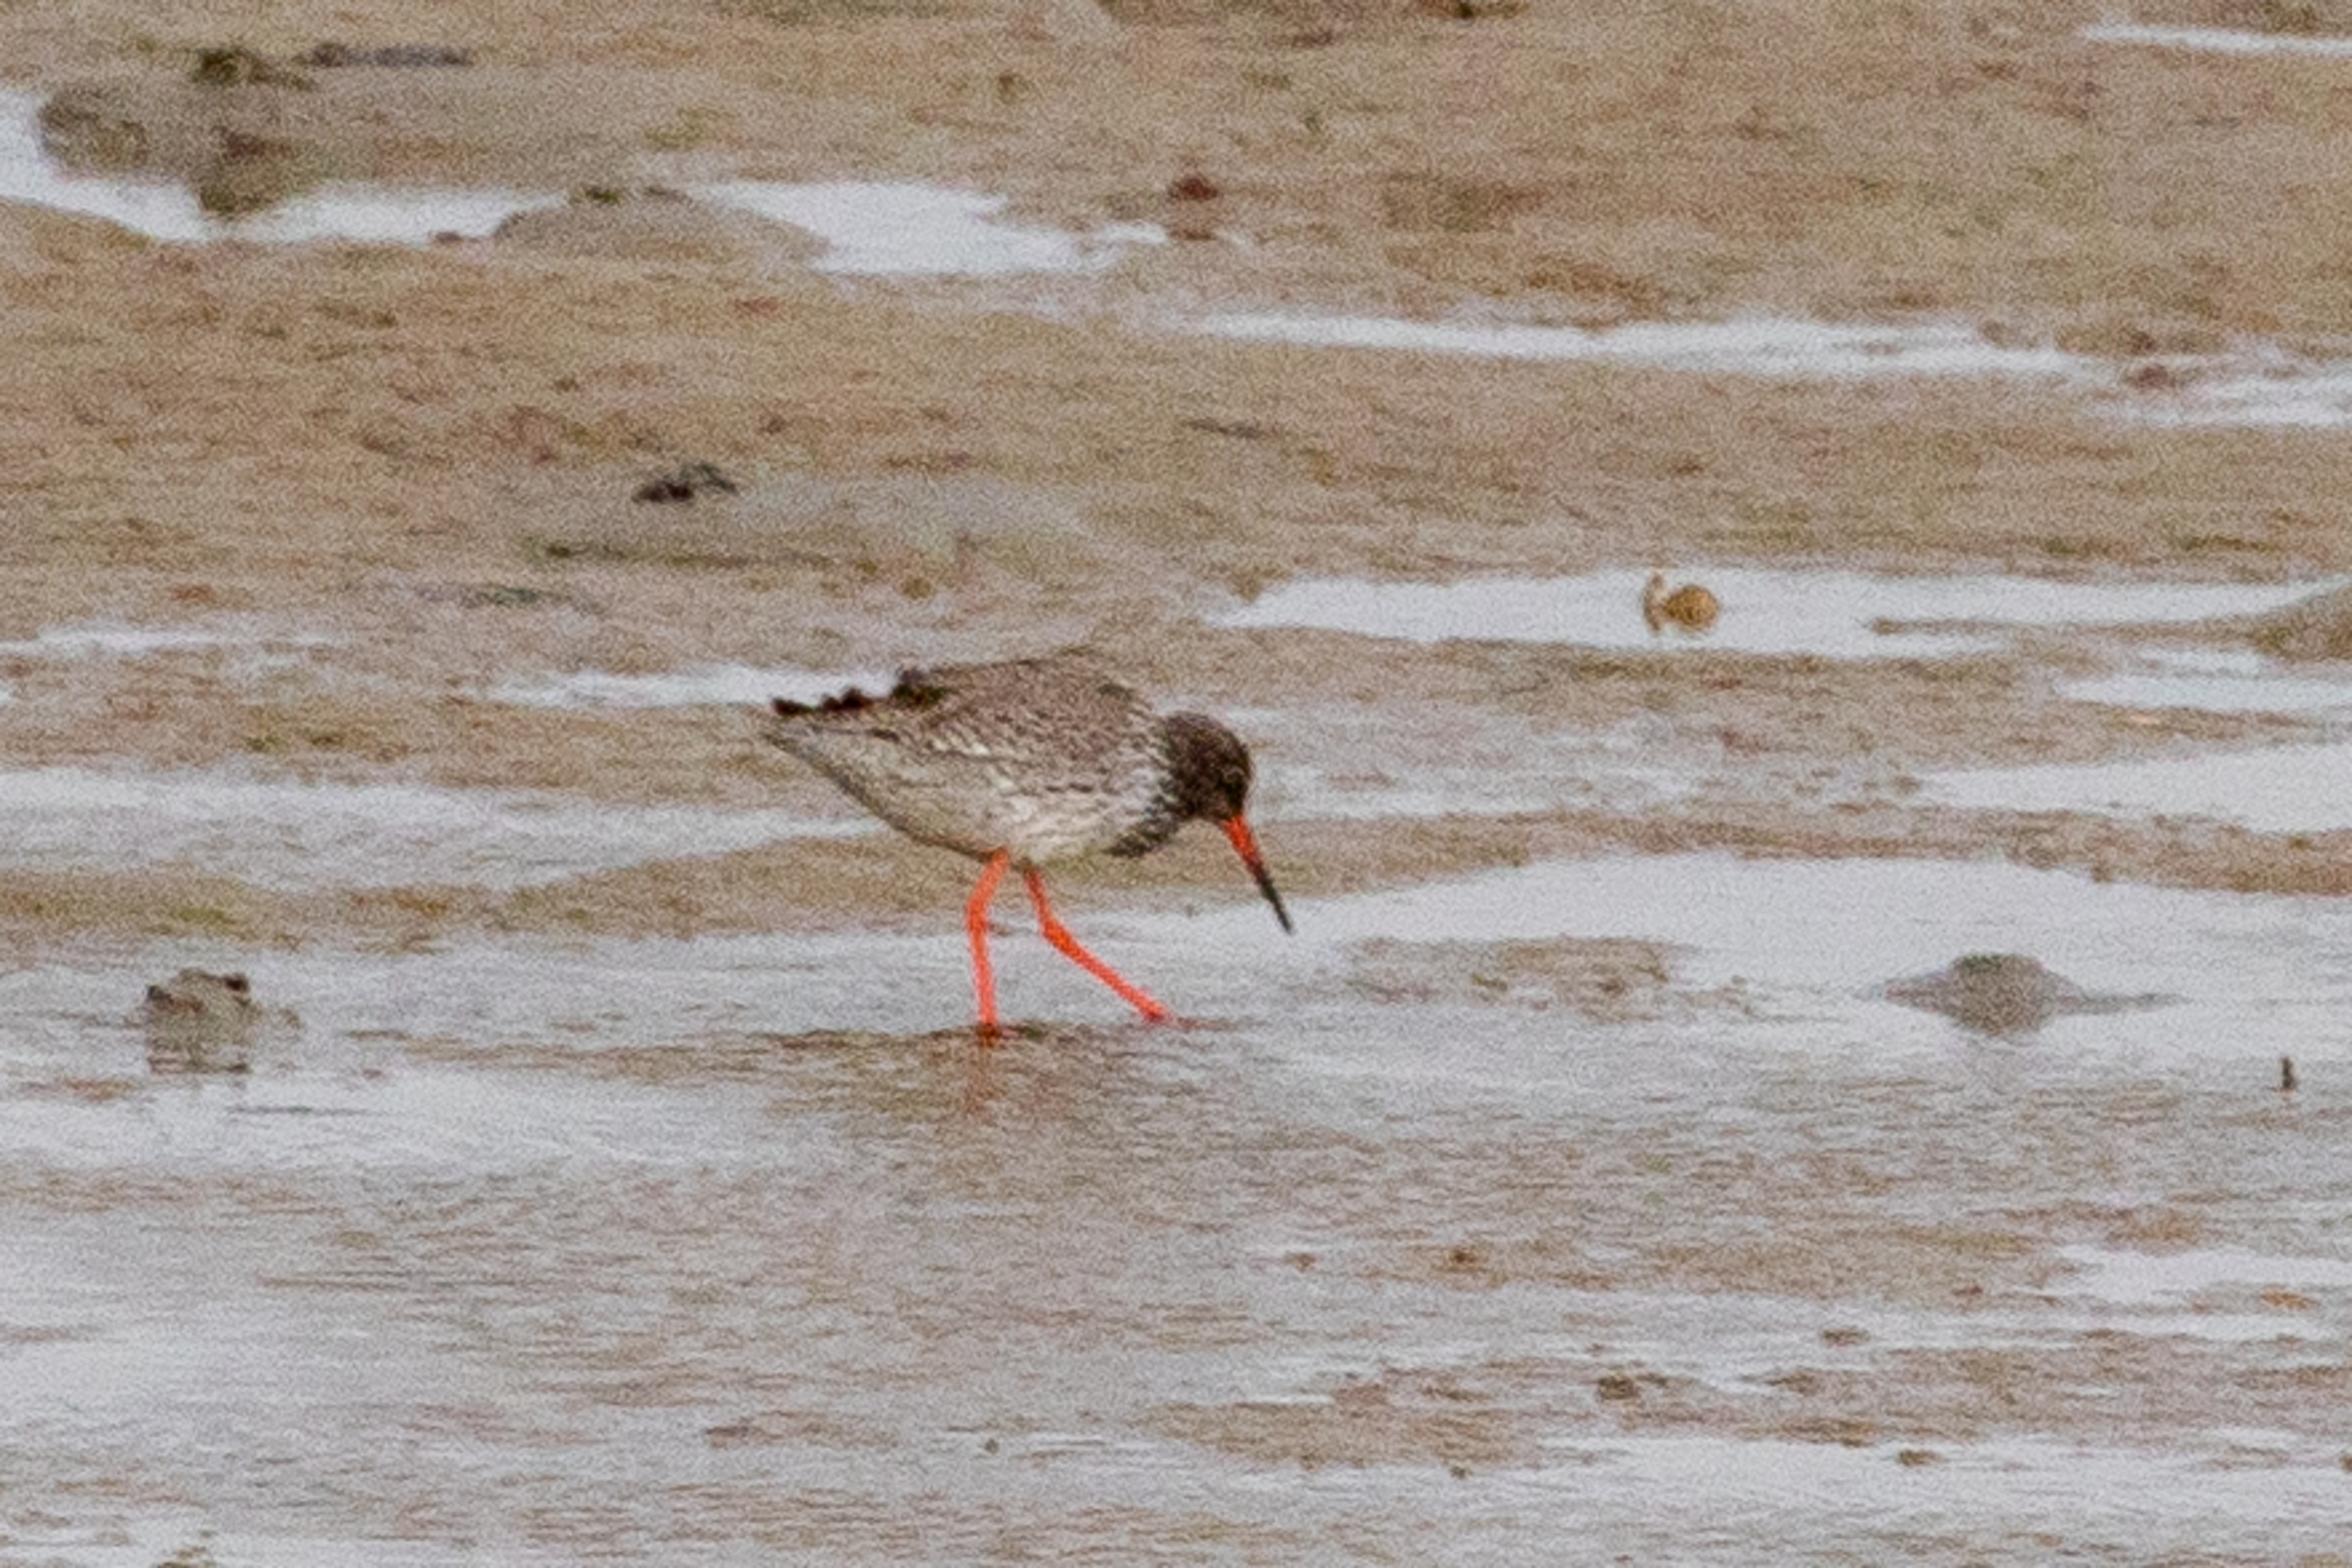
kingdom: Animalia
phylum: Chordata
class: Aves
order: Charadriiformes
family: Scolopacidae
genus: Tringa
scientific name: Tringa totanus
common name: Rødben
